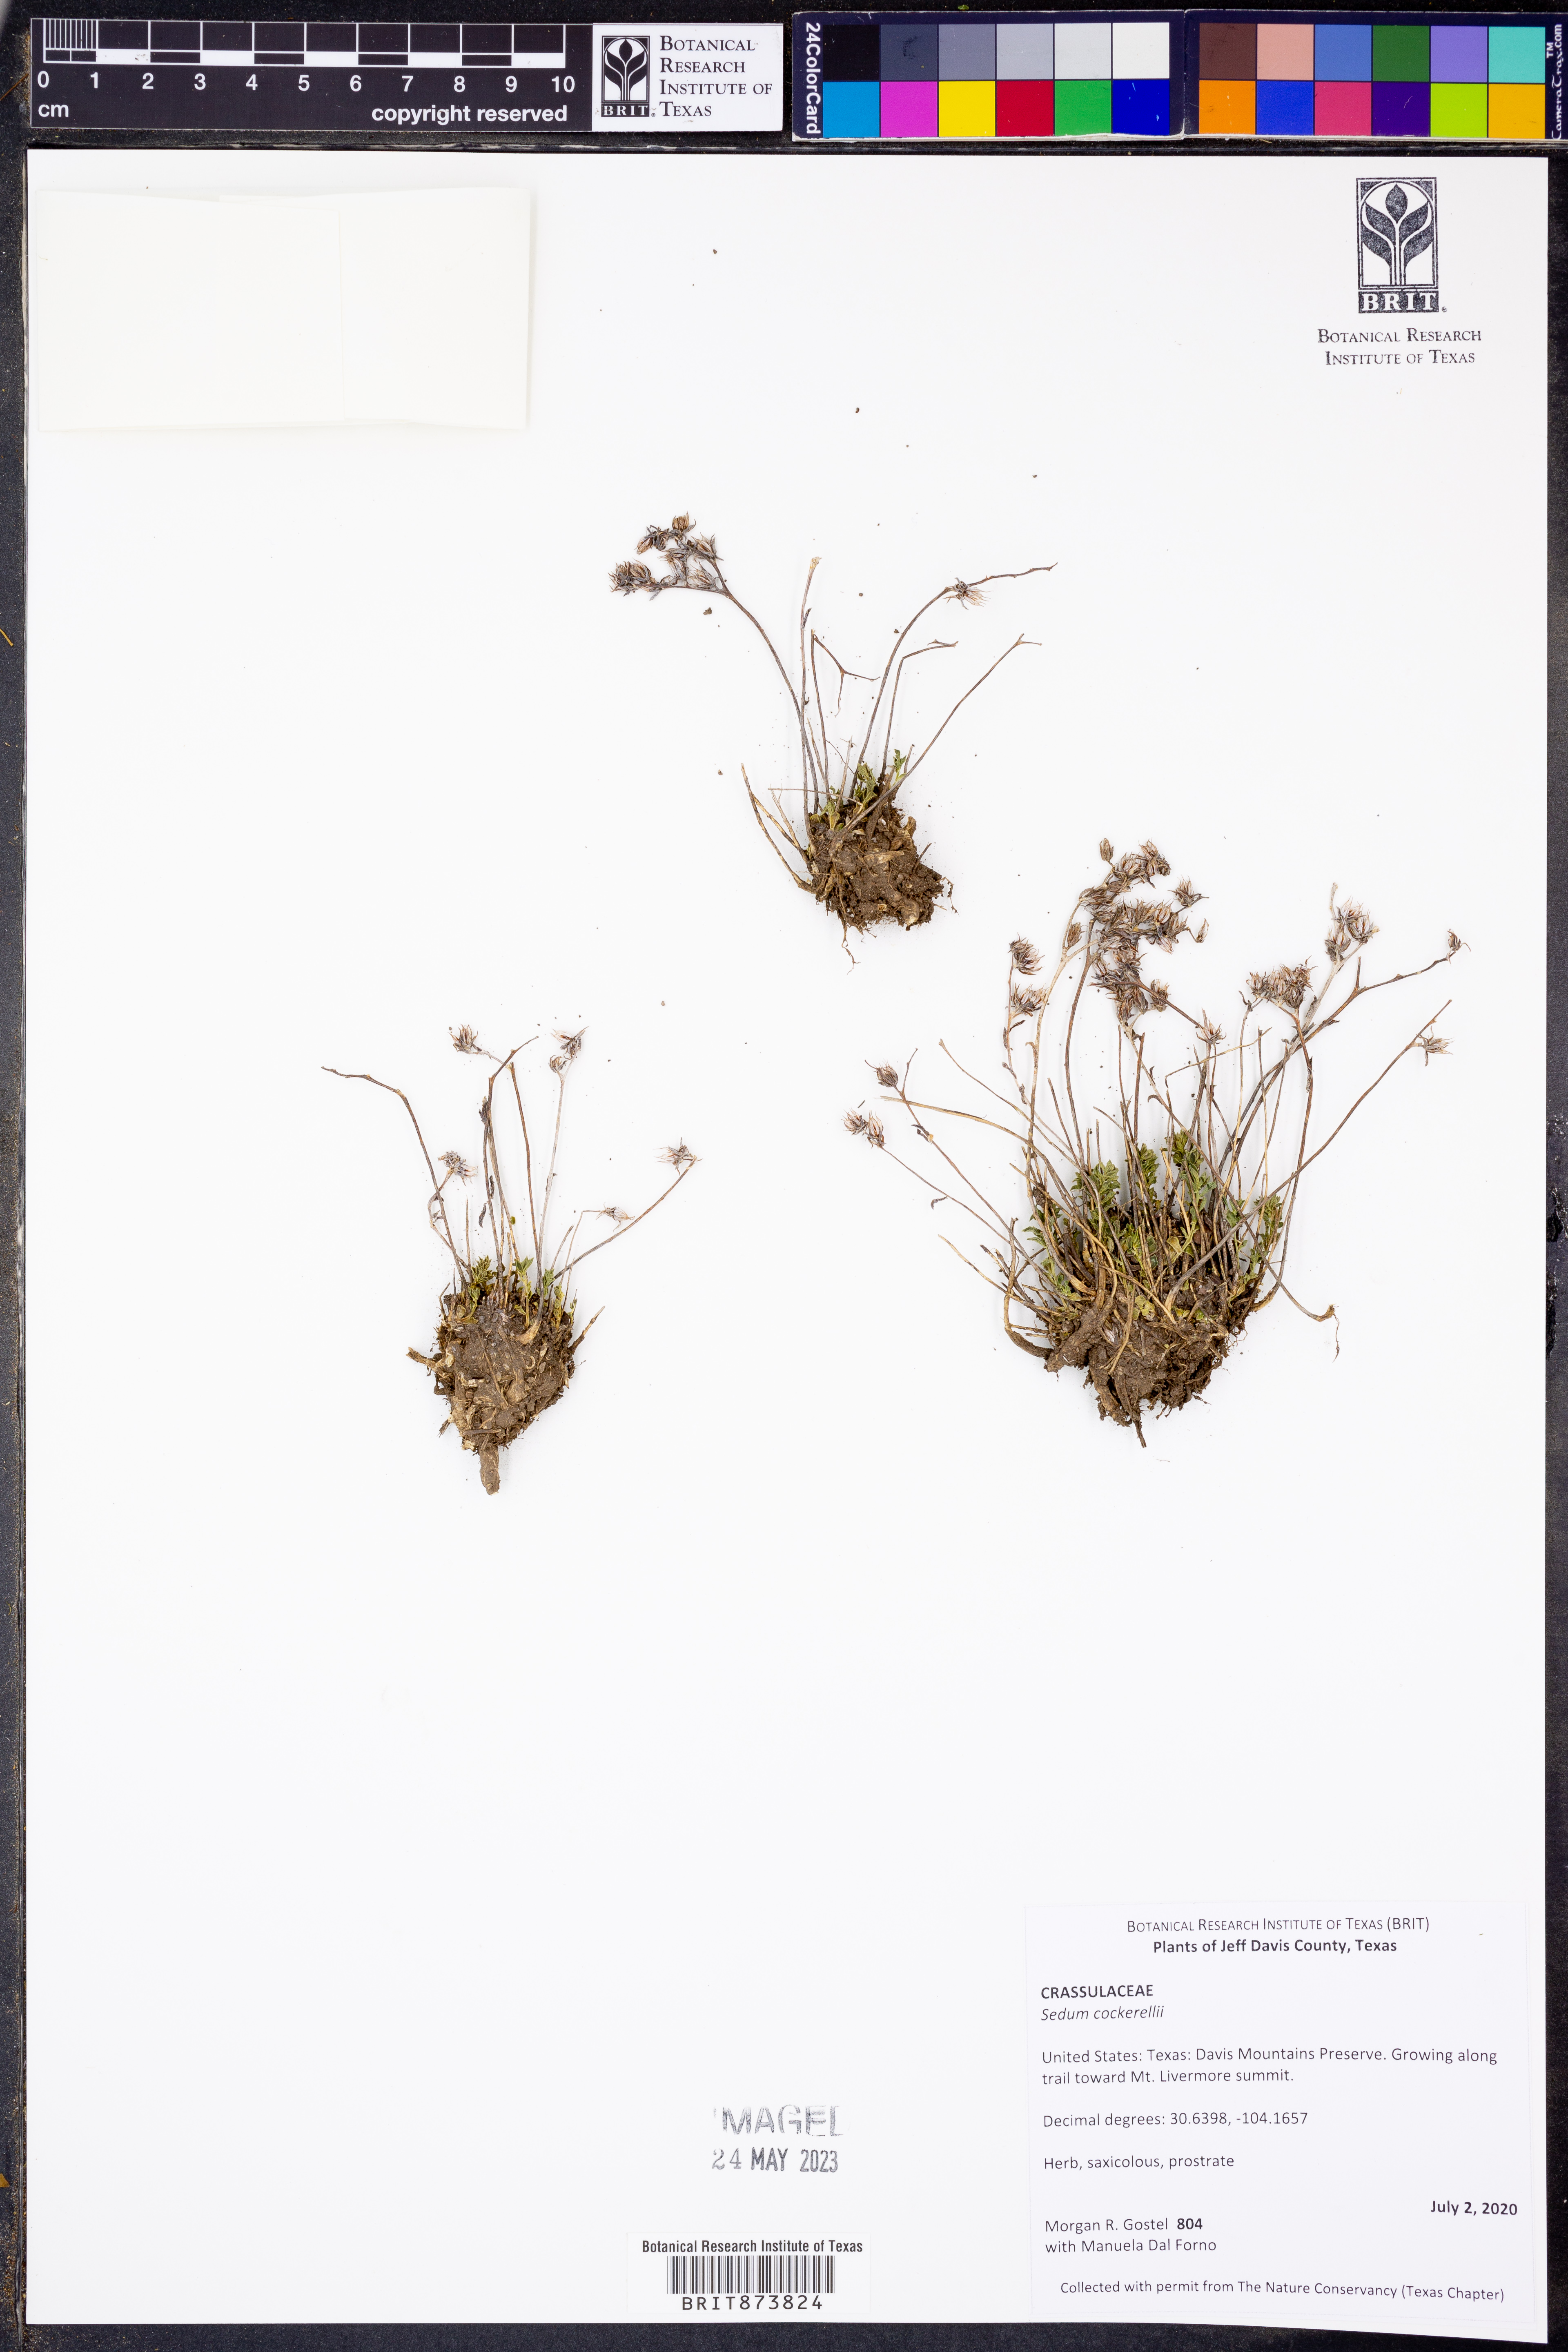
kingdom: Plantae
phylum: Tracheophyta
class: Magnoliopsida
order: Saxifragales
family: Crassulaceae
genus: Sedum
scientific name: Sedum cockerellii
